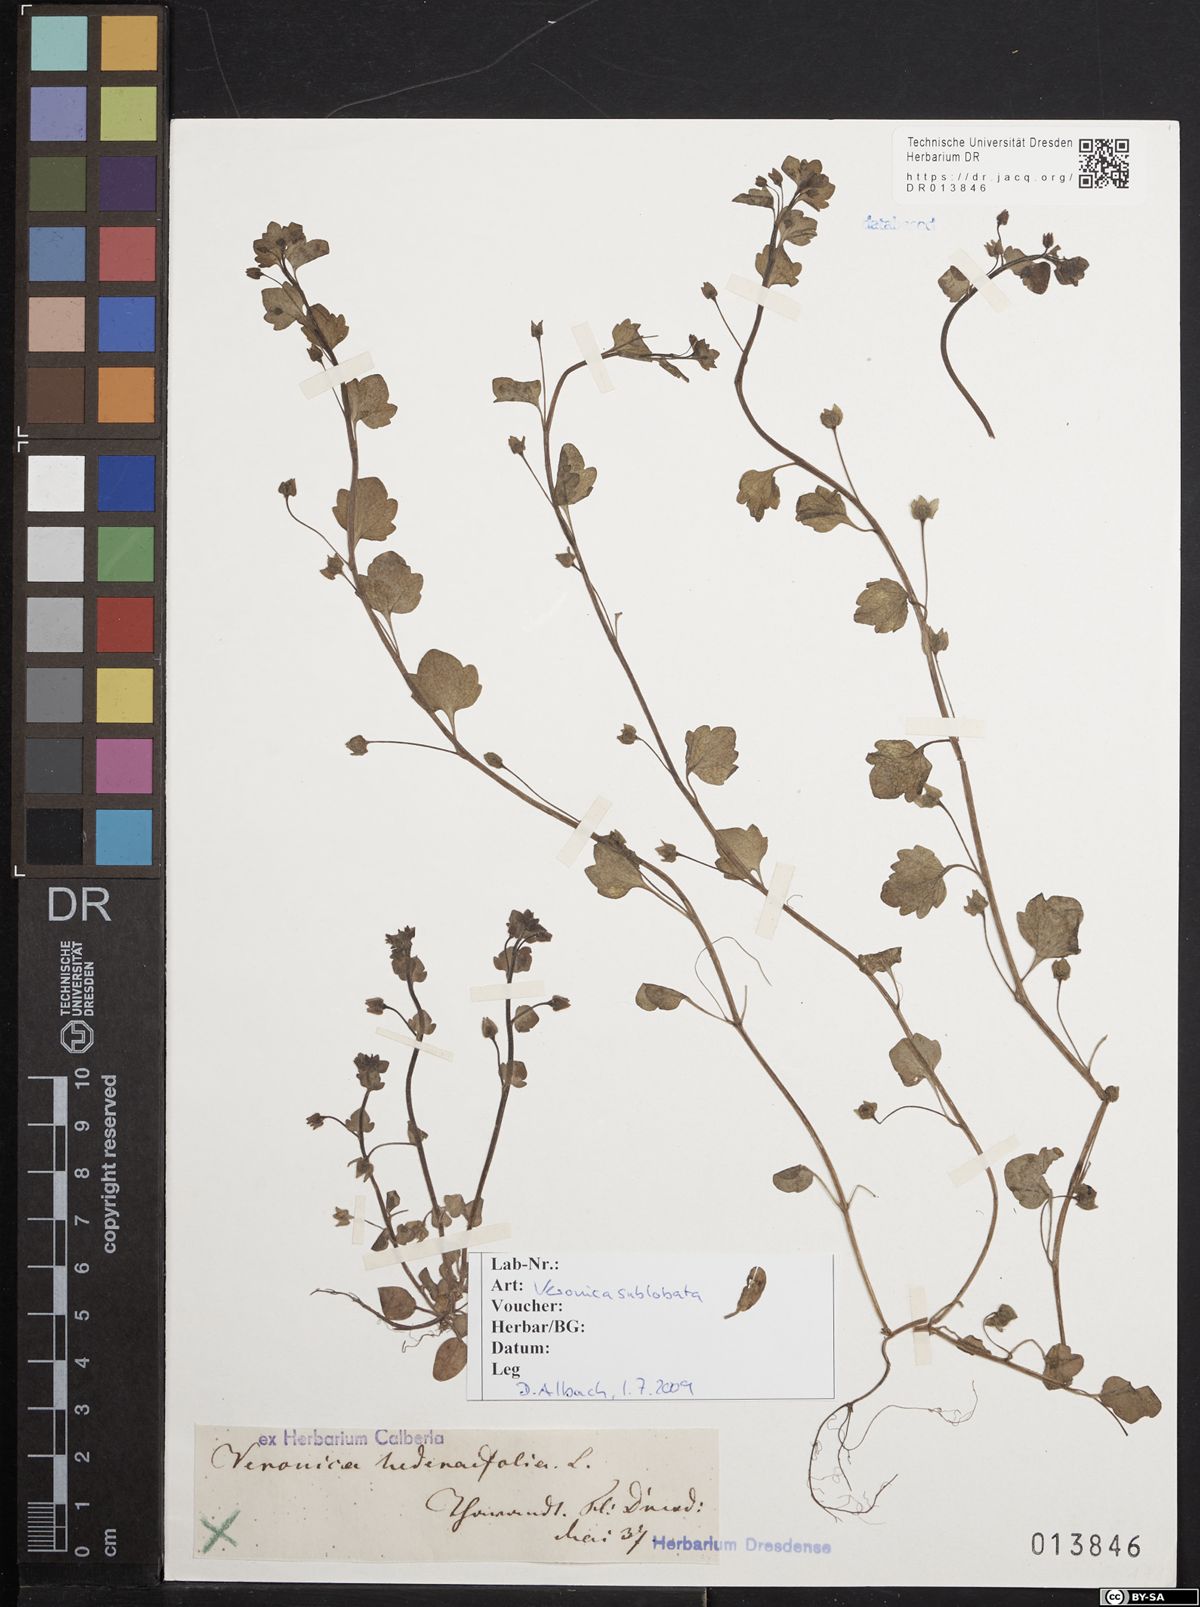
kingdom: Plantae
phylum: Tracheophyta
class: Magnoliopsida
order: Lamiales
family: Plantaginaceae
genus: Veronica
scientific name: Veronica sublobata
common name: False ivy-leaved speedwell
